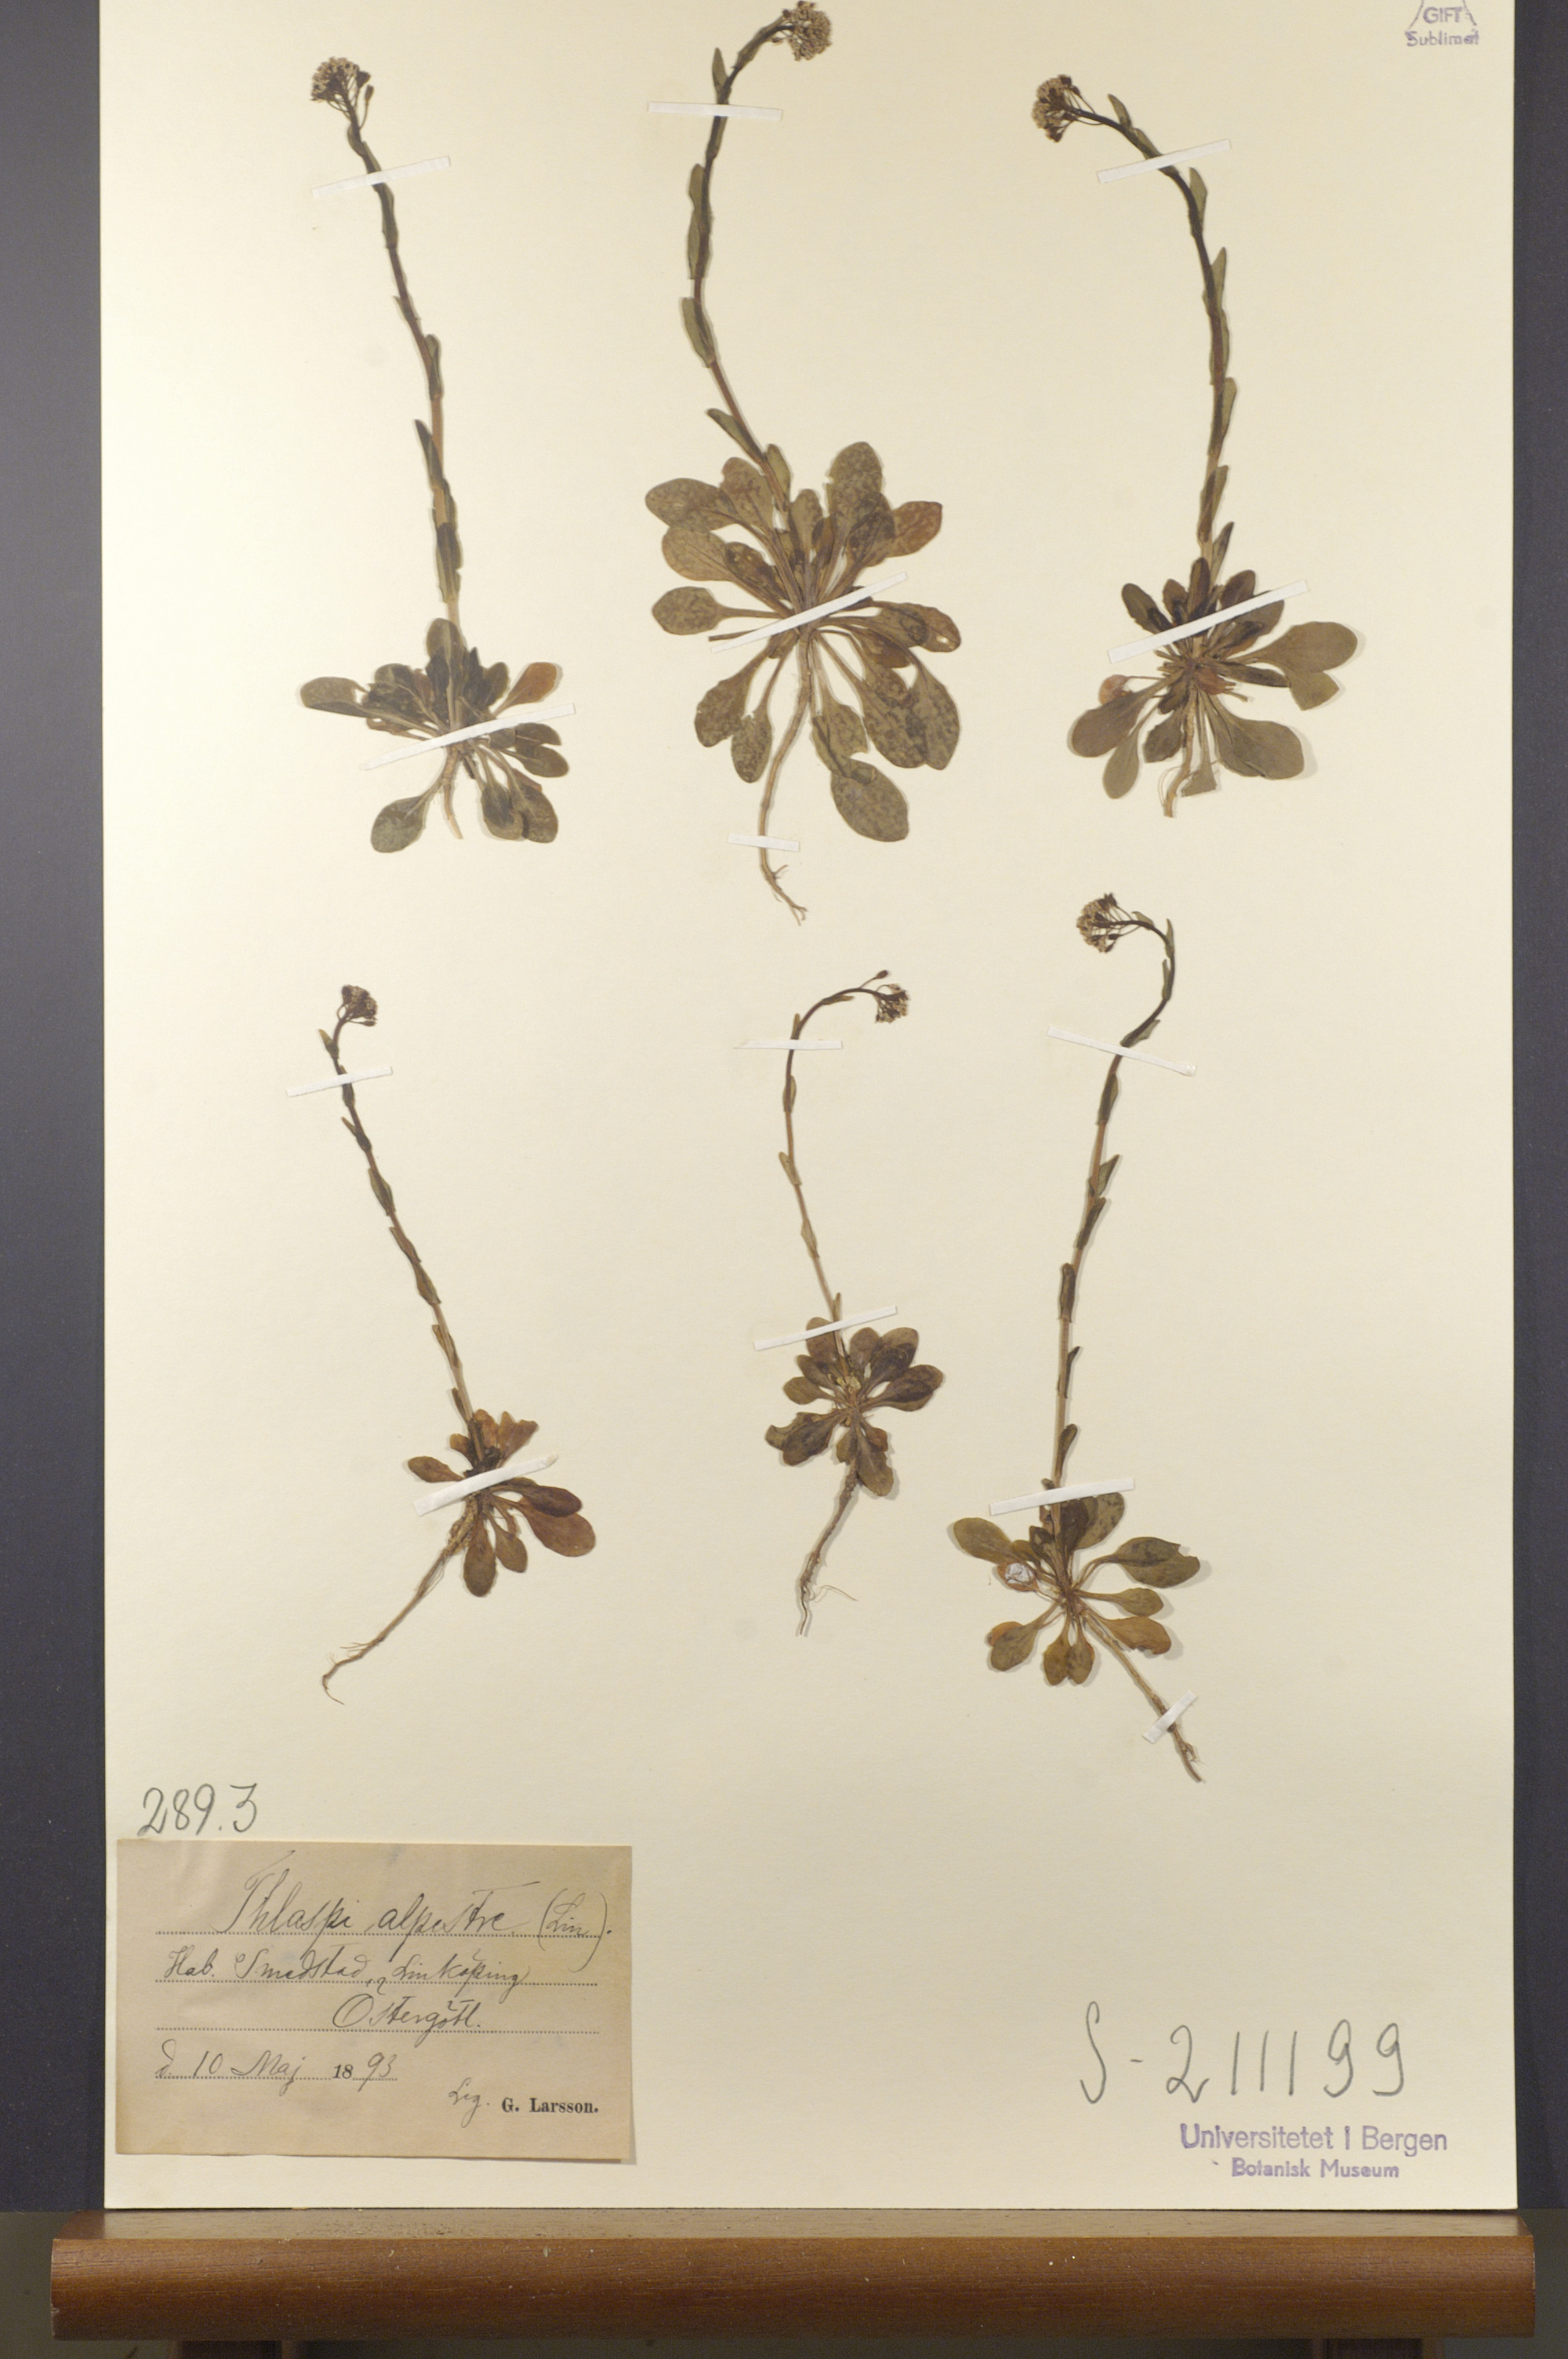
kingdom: Plantae
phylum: Tracheophyta
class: Magnoliopsida
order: Brassicales
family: Brassicaceae
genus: Noccaea
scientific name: Noccaea caerulescens
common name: Alpine pennycress
